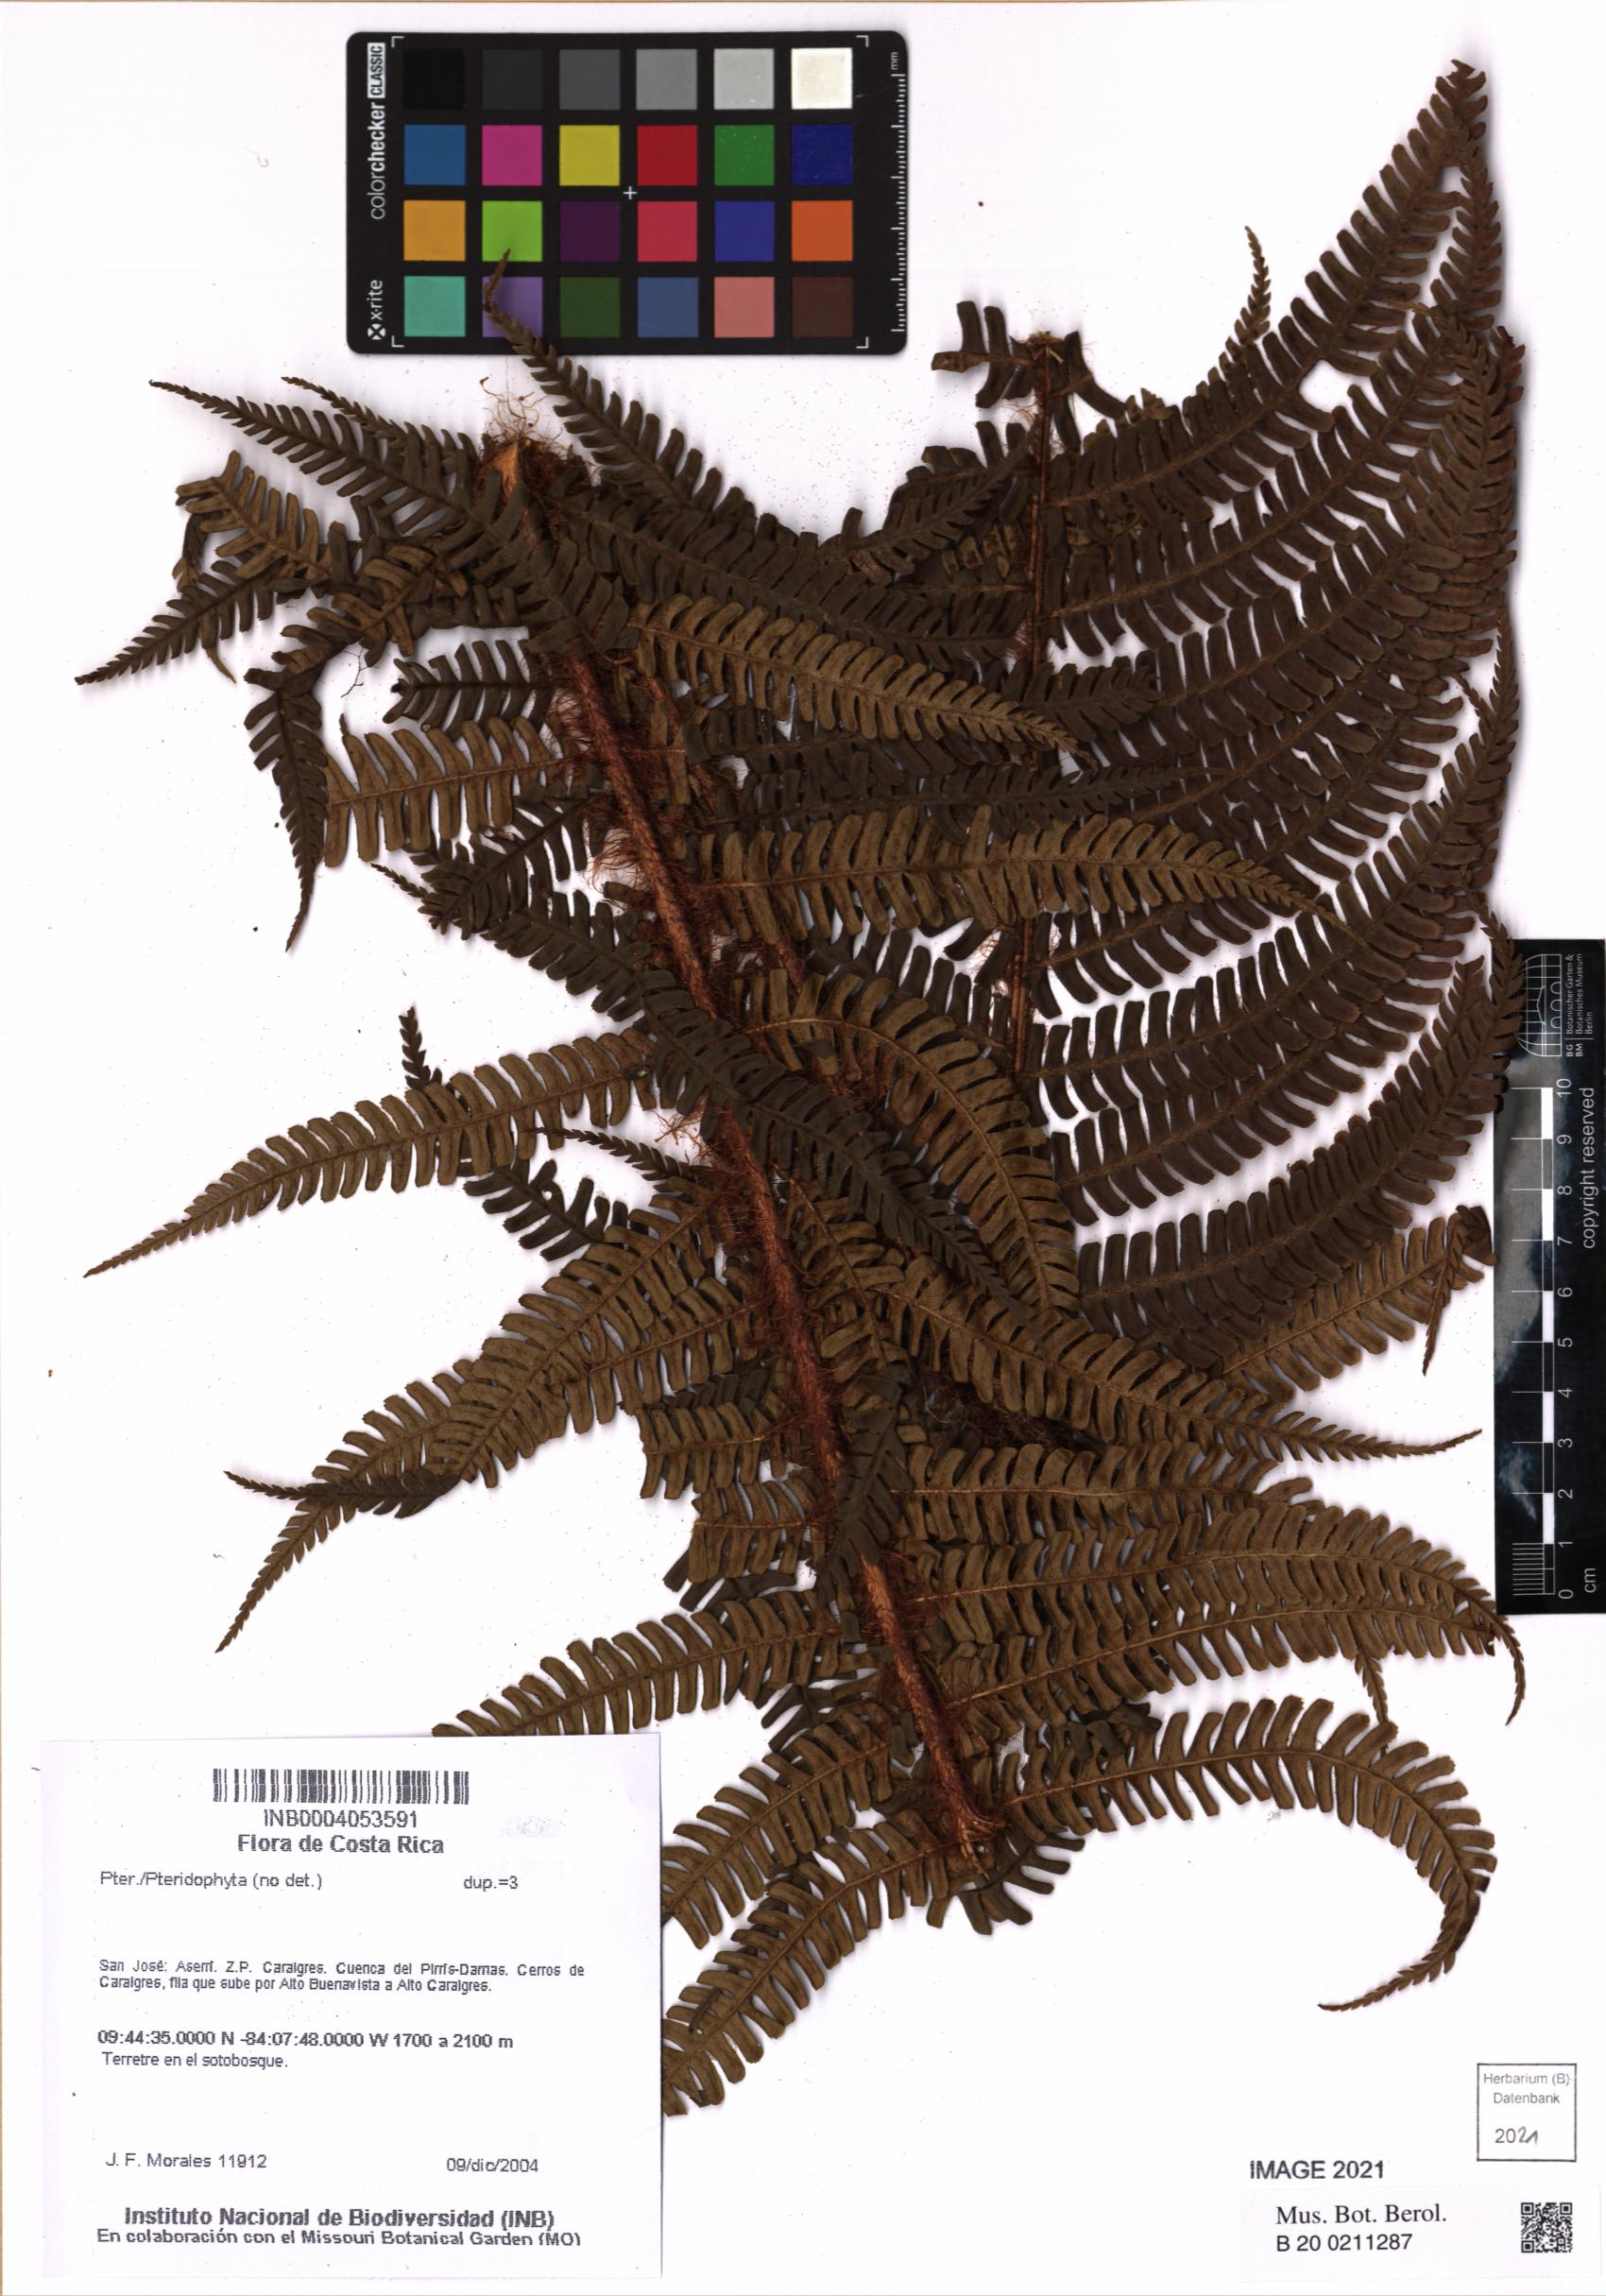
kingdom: Plantae
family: Pteridophyta
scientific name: Pteridophyta
